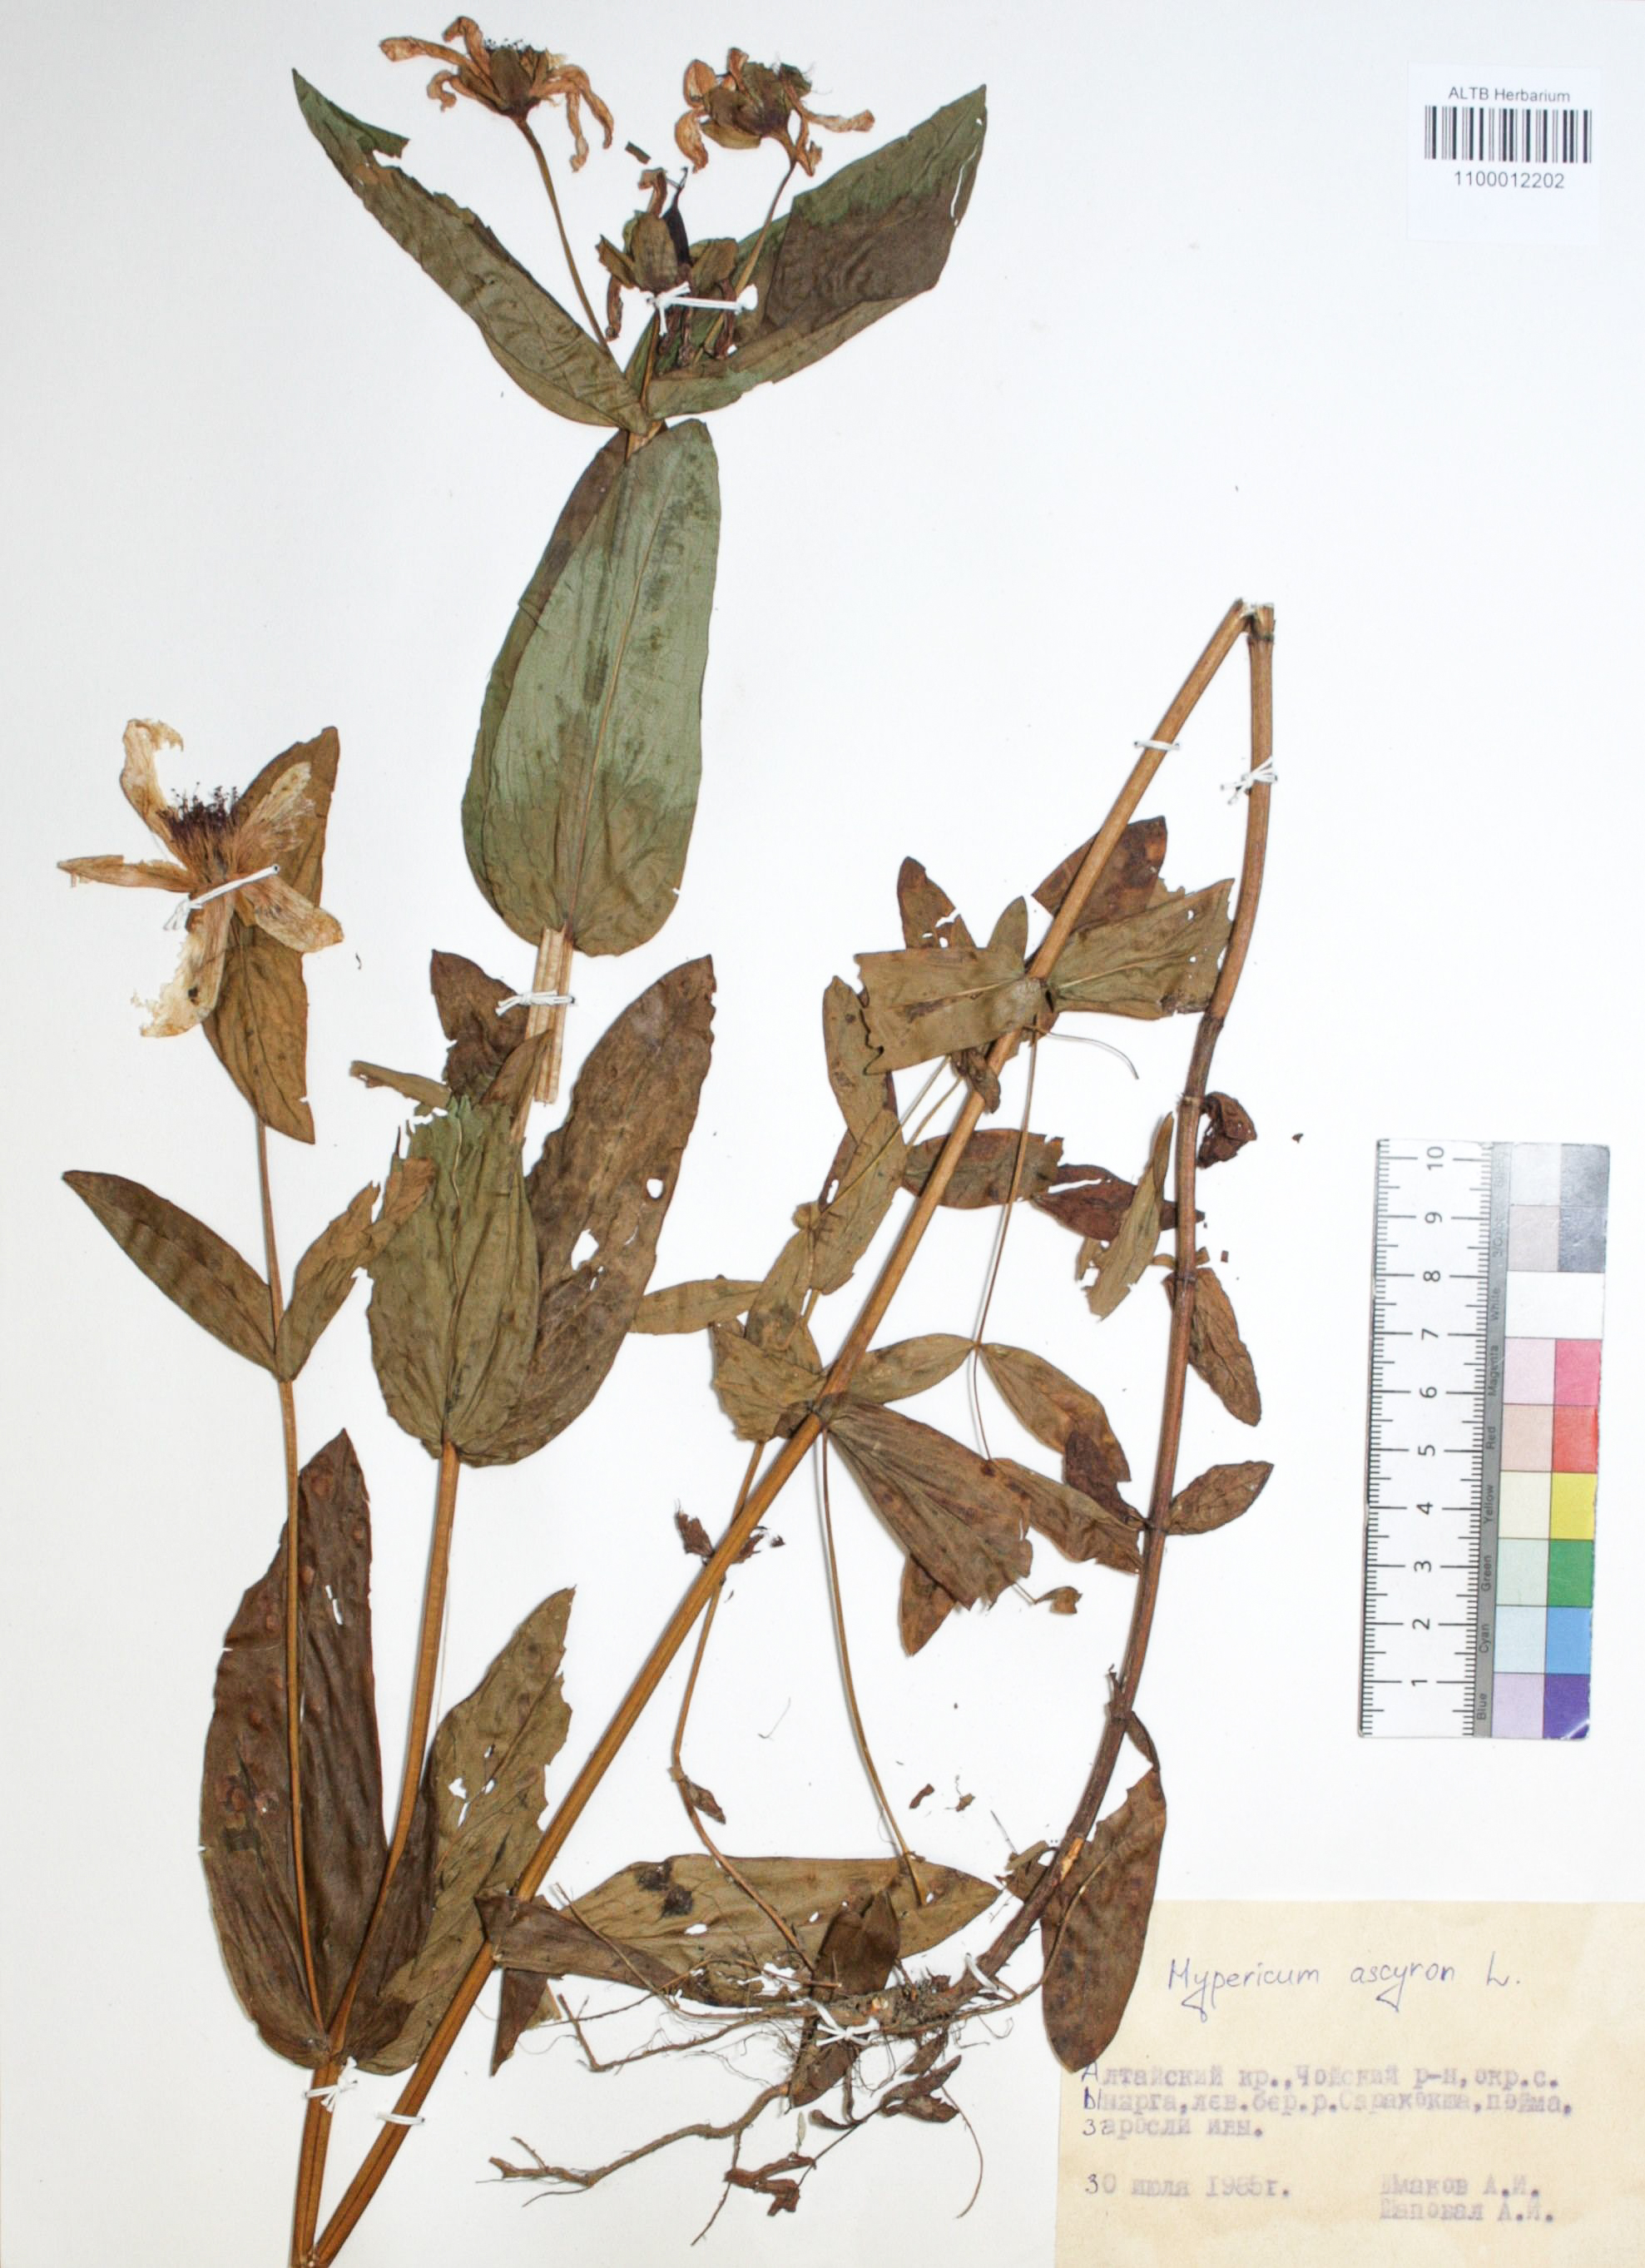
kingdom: Plantae
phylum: Tracheophyta
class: Magnoliopsida
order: Malpighiales
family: Hypericaceae
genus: Hypericum
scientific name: Hypericum ascyron
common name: Giant st. john's-wort
